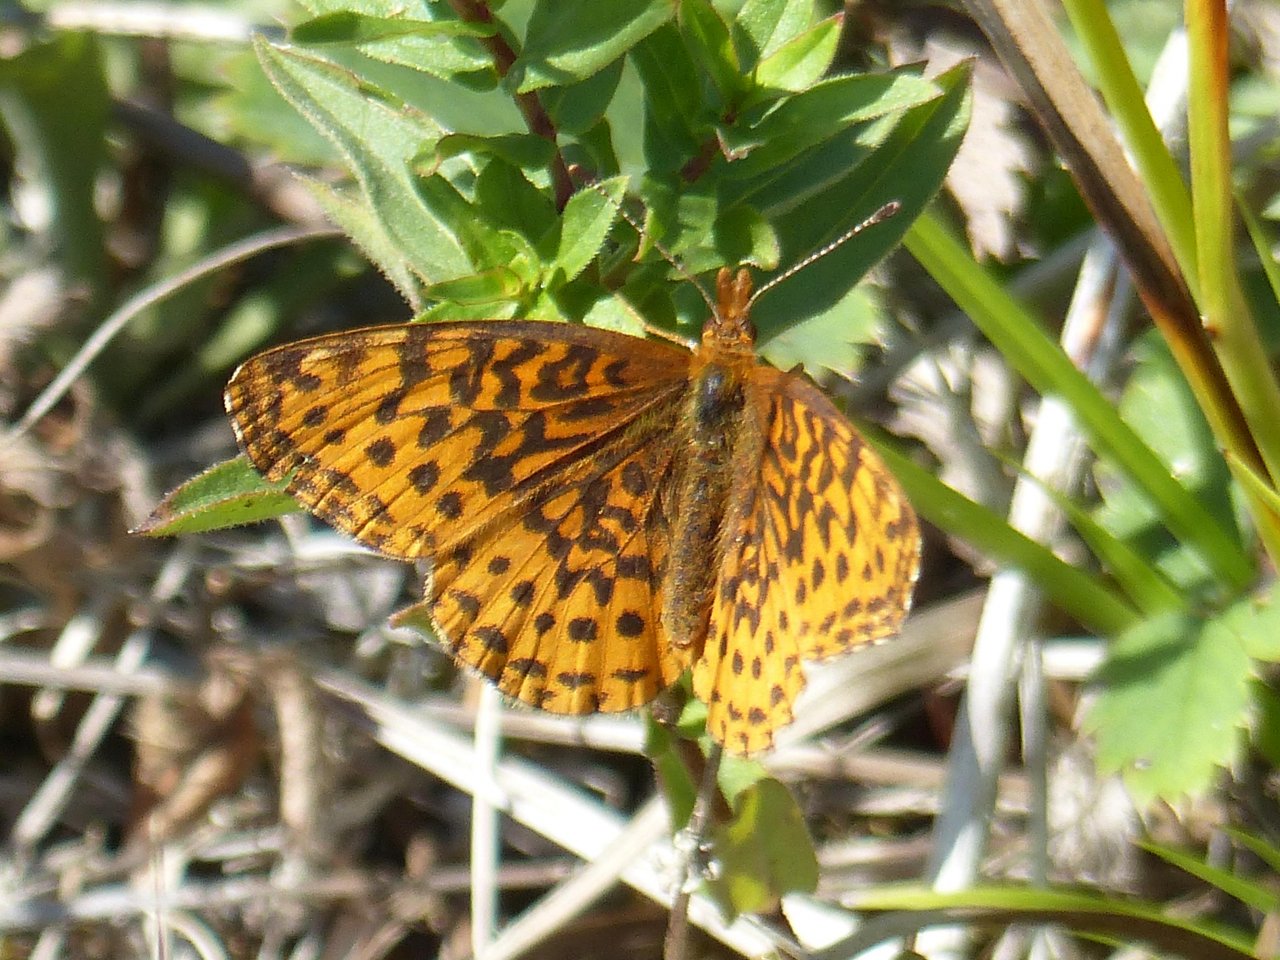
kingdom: Animalia
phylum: Arthropoda
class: Insecta
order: Lepidoptera
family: Nymphalidae
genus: Clossiana
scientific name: Clossiana toddi
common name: Meadow Fritillary
